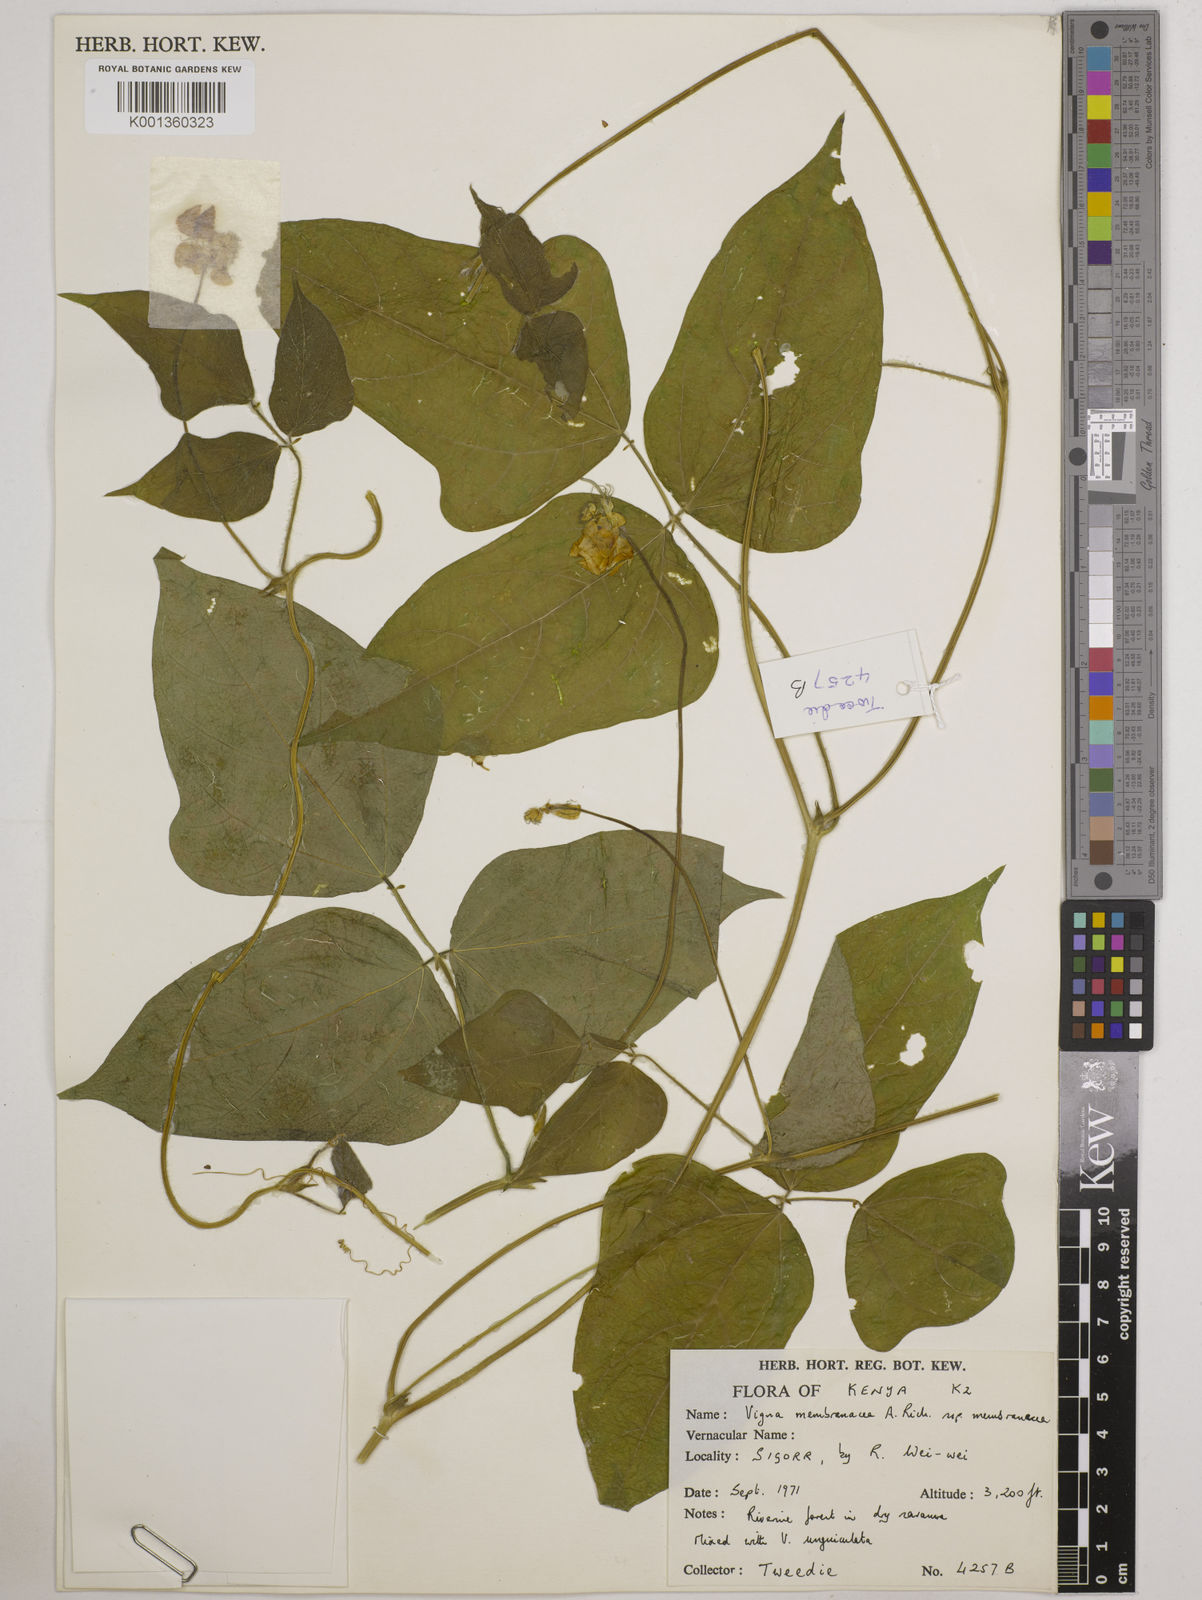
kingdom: Plantae
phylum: Tracheophyta
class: Magnoliopsida
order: Fabales
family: Fabaceae
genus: Vigna
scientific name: Vigna membranacea
